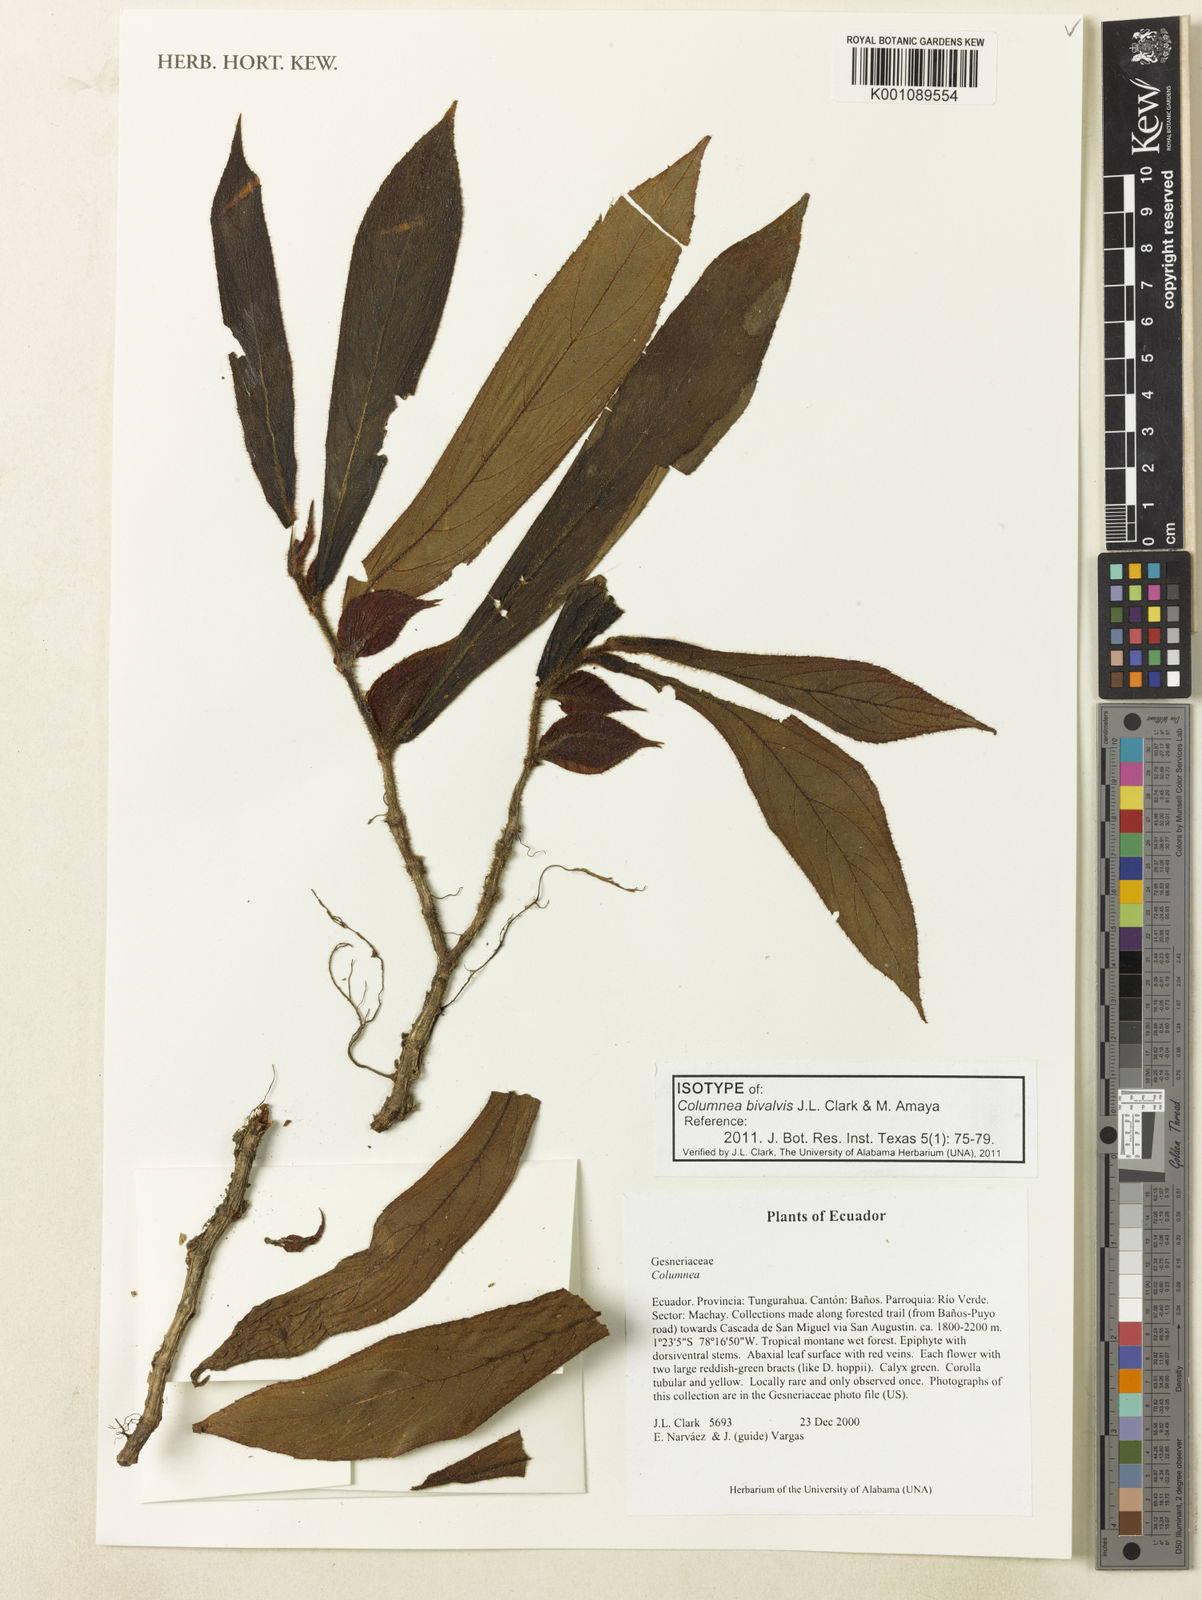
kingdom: Plantae
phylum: Tracheophyta
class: Magnoliopsida
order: Lamiales
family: Gesneriaceae
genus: Columnea
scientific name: Columnea bivalvis
